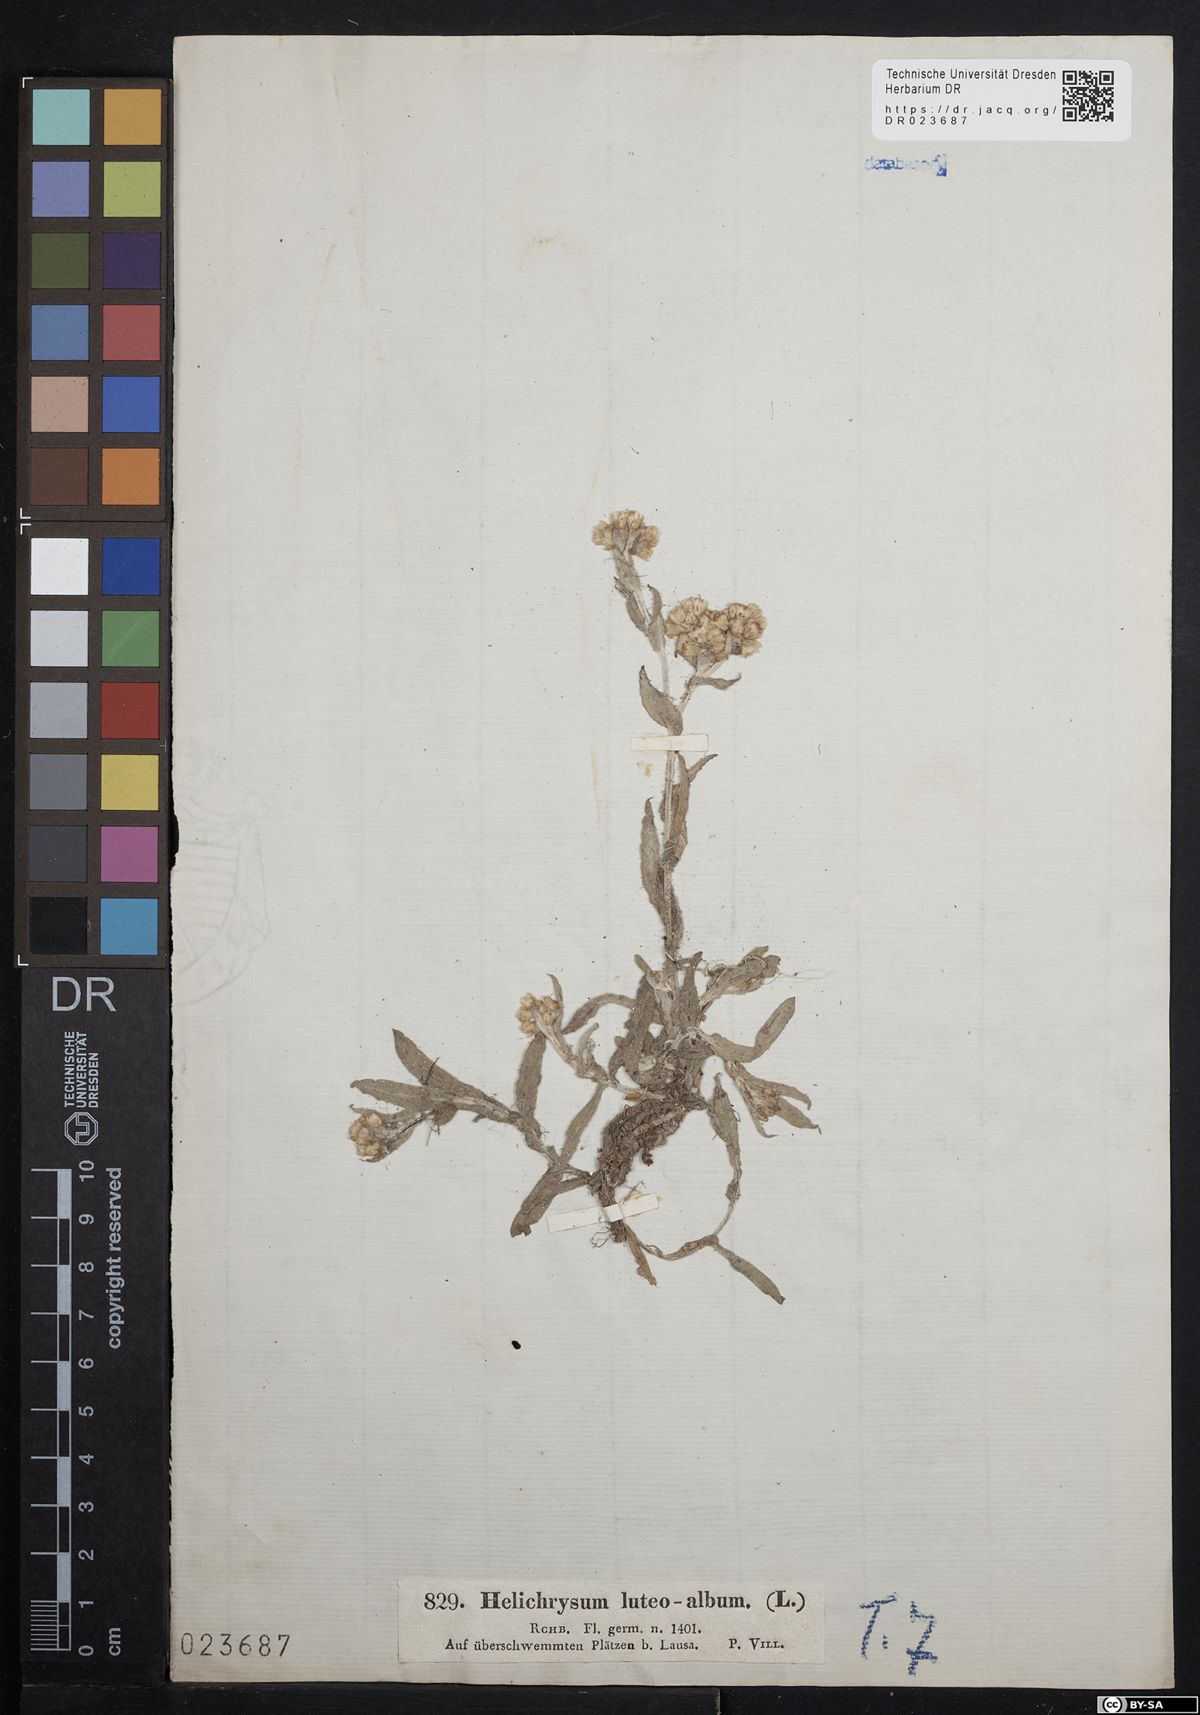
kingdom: Plantae
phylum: Tracheophyta
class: Magnoliopsida
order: Asterales
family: Asteraceae
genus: Helichrysum
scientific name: Helichrysum luteoalbum
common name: Daisy
